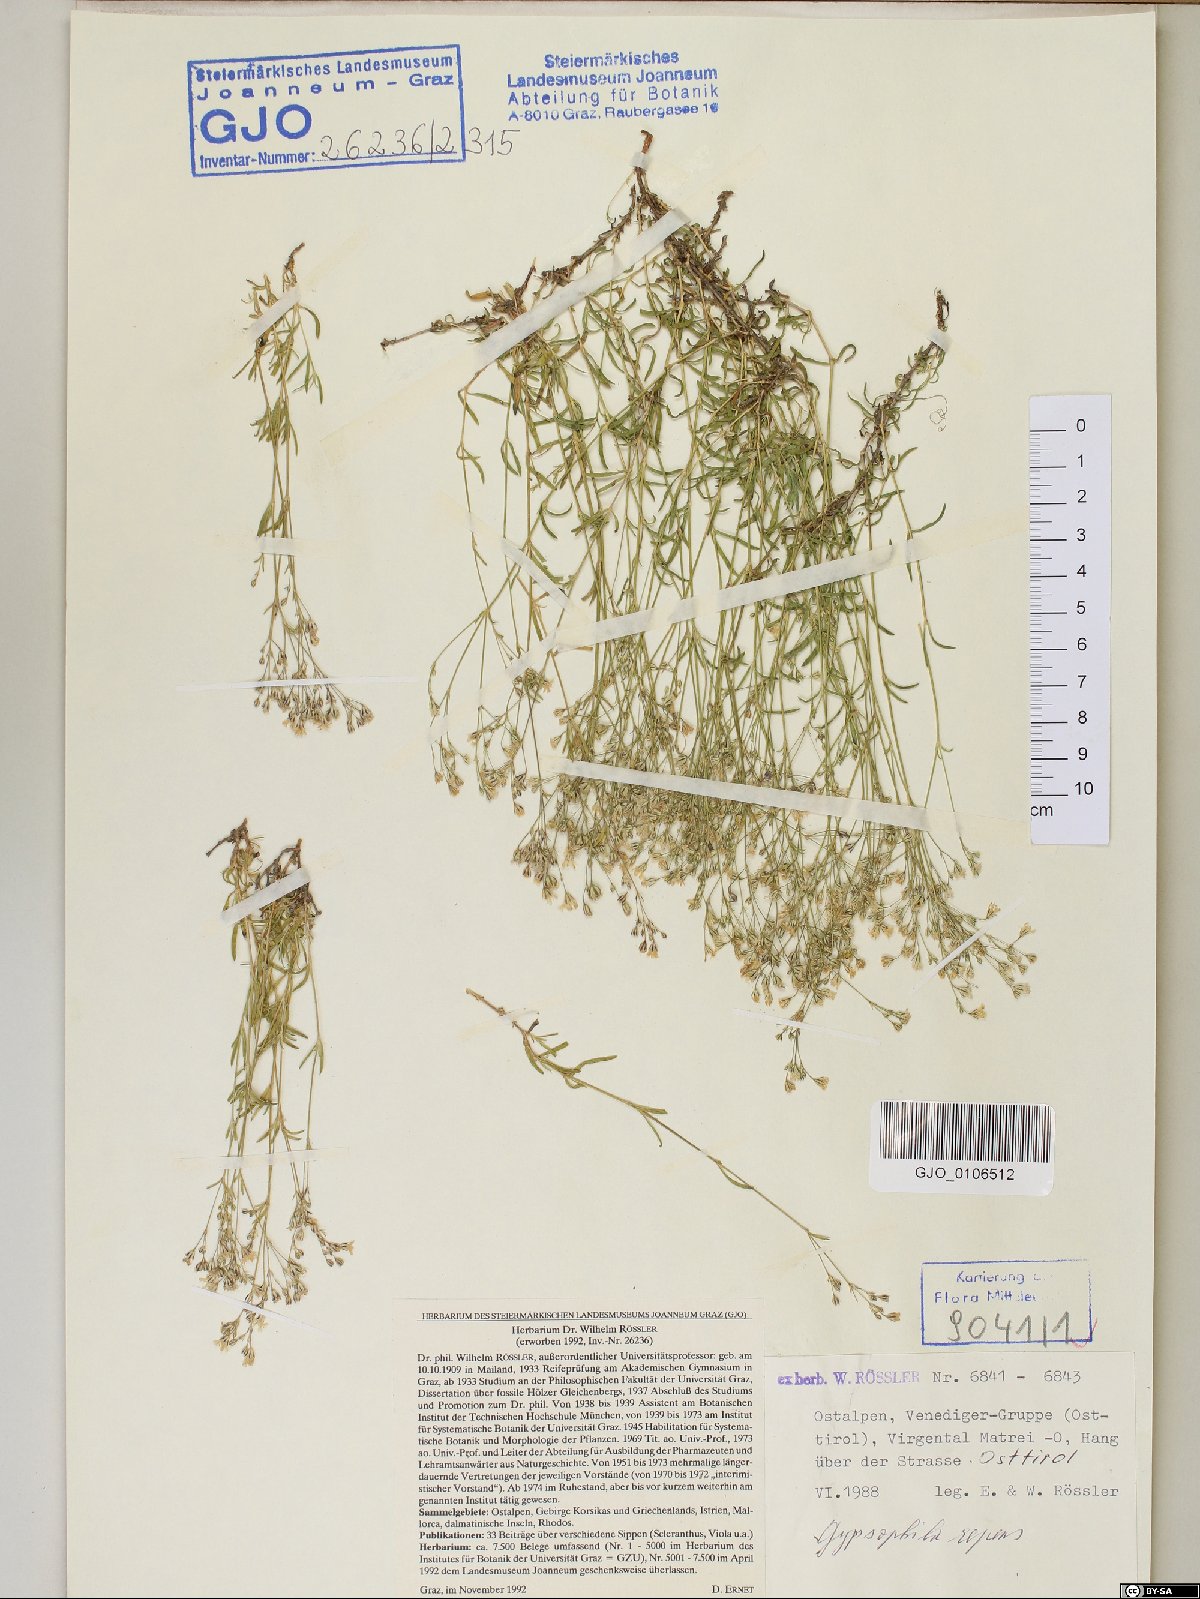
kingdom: Plantae
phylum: Tracheophyta
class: Magnoliopsida
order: Caryophyllales
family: Caryophyllaceae
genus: Gypsophila
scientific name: Gypsophila repens
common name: Creeping baby's-breath
